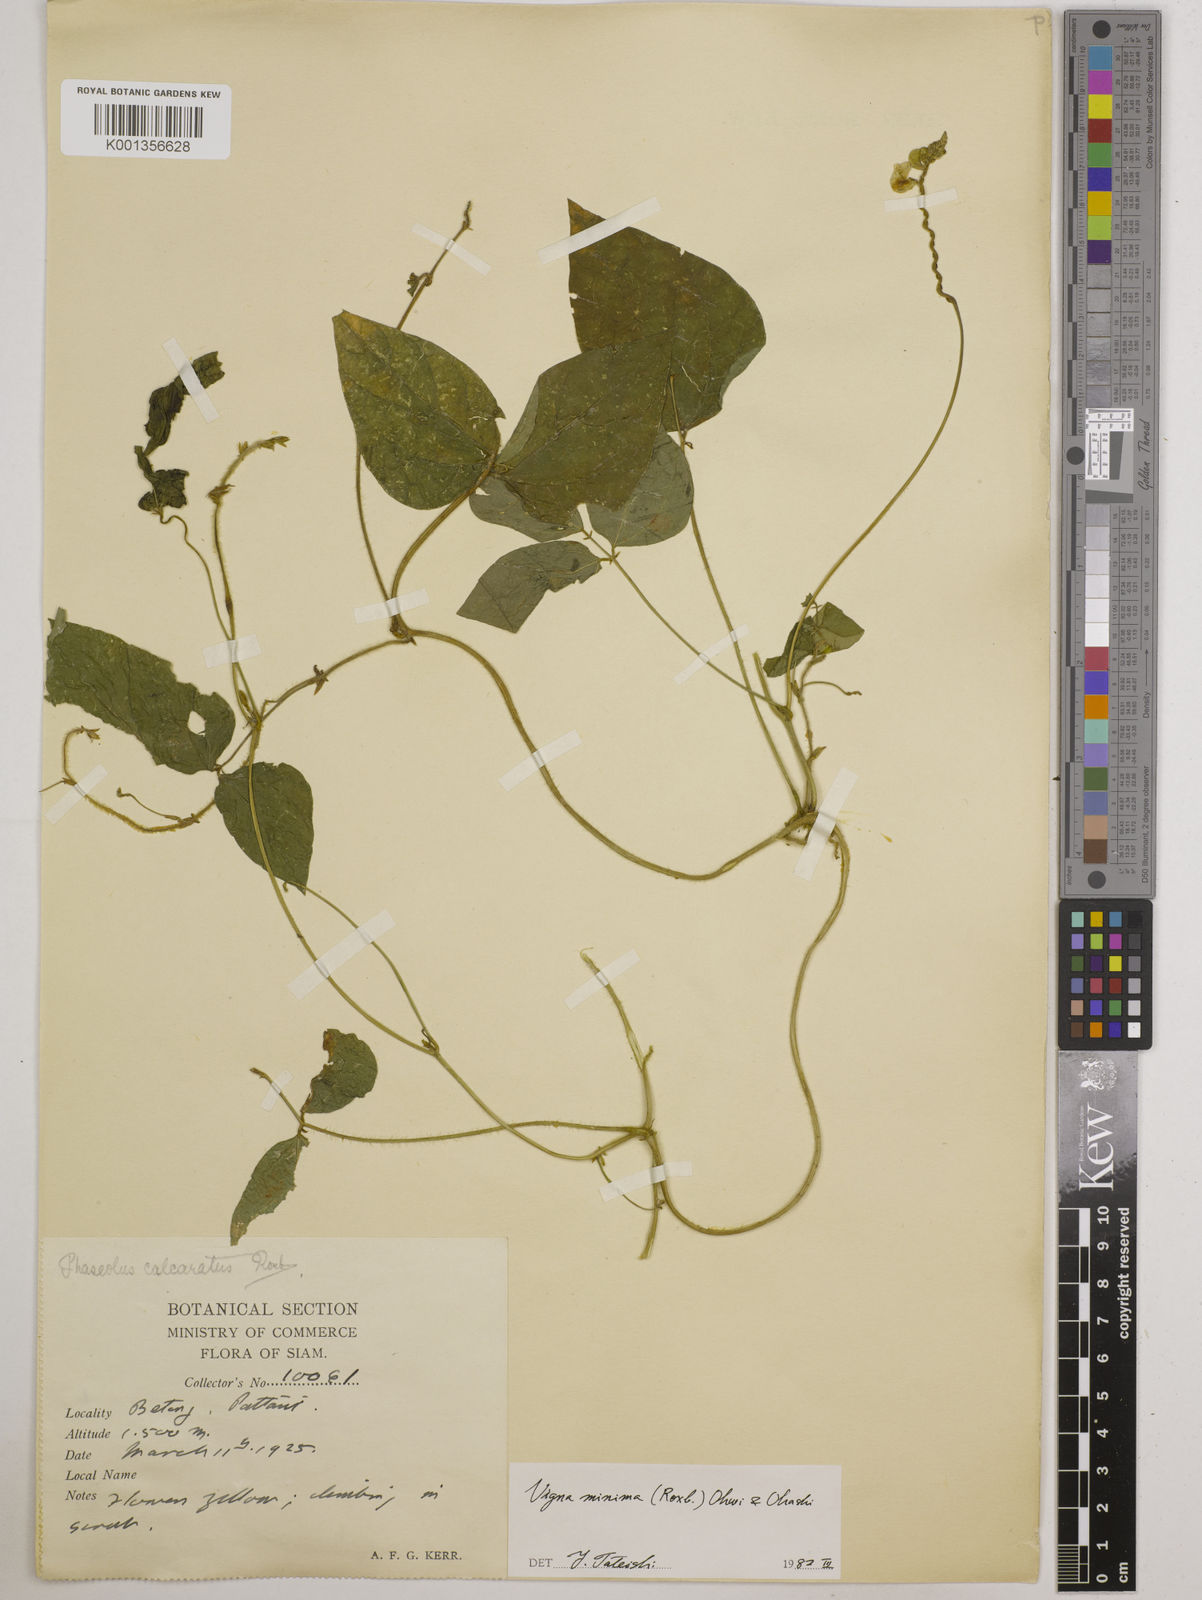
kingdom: Plantae
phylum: Tracheophyta
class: Magnoliopsida
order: Fabales
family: Fabaceae
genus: Vigna
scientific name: Vigna minima
